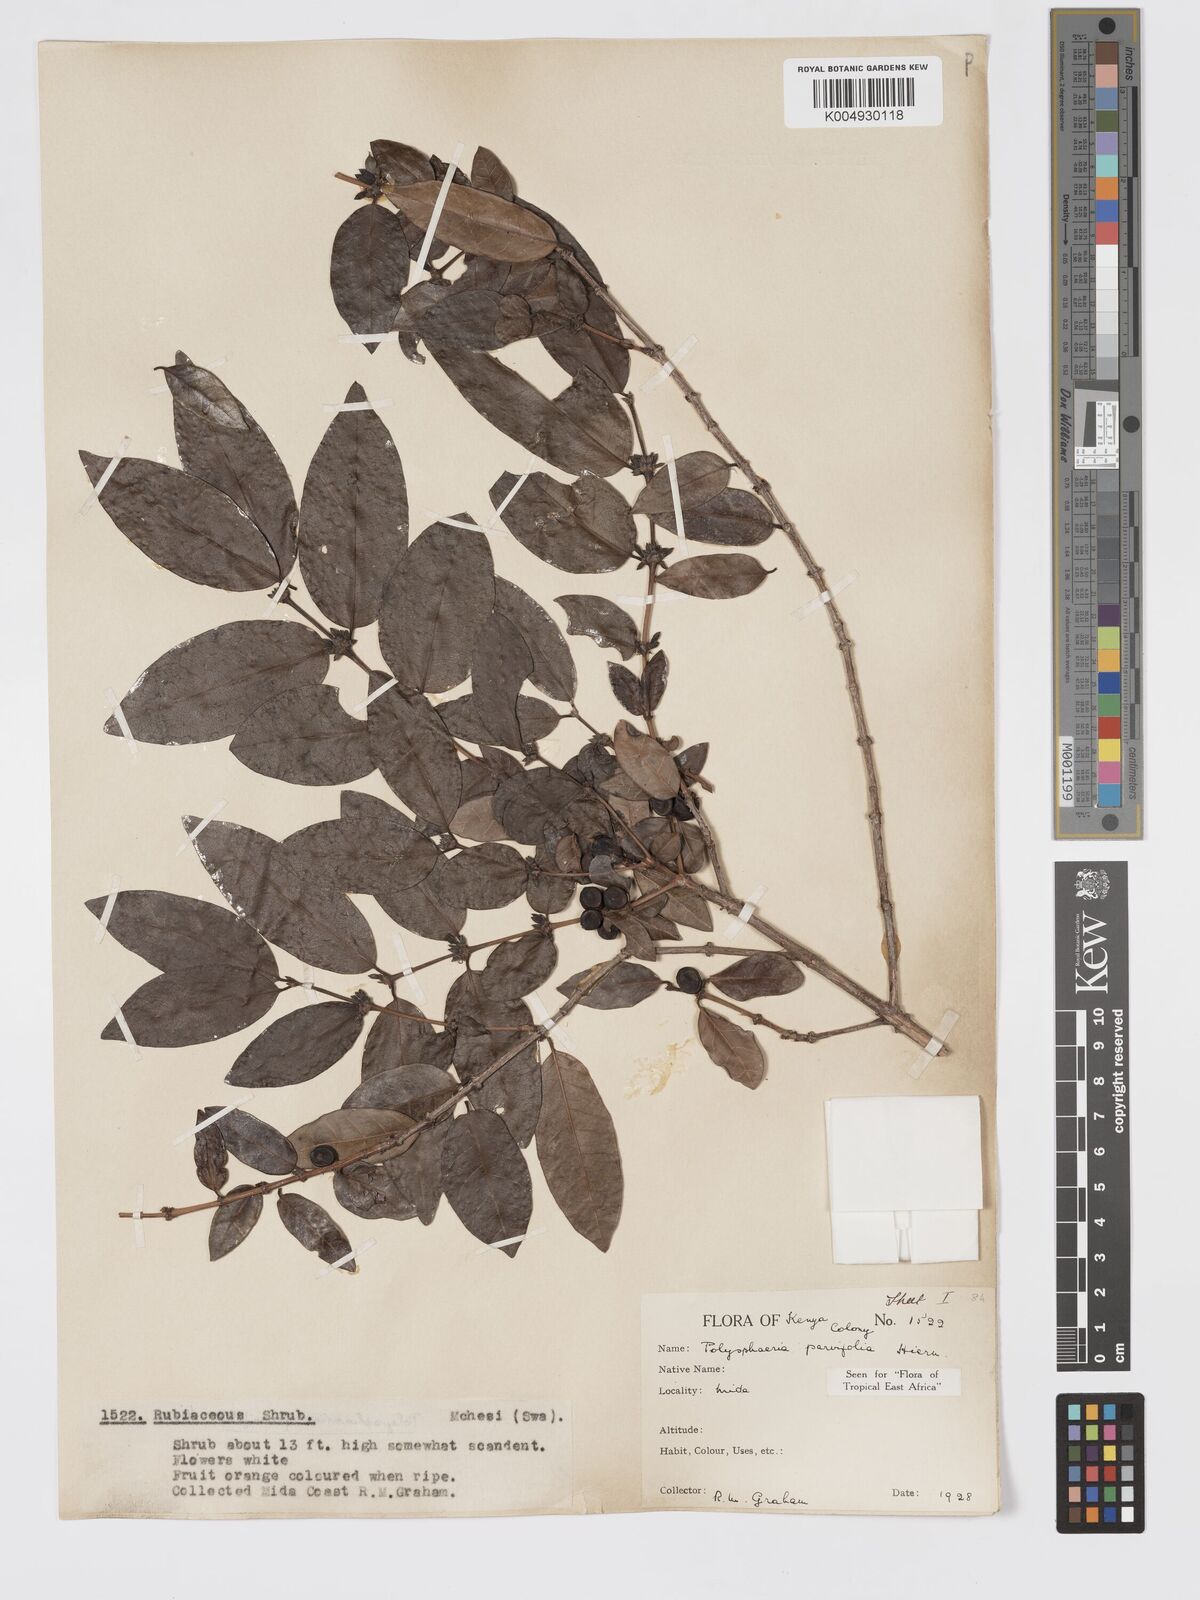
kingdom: Plantae
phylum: Tracheophyta
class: Magnoliopsida
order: Gentianales
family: Rubiaceae
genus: Polysphaeria
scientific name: Polysphaeria parvifolia
